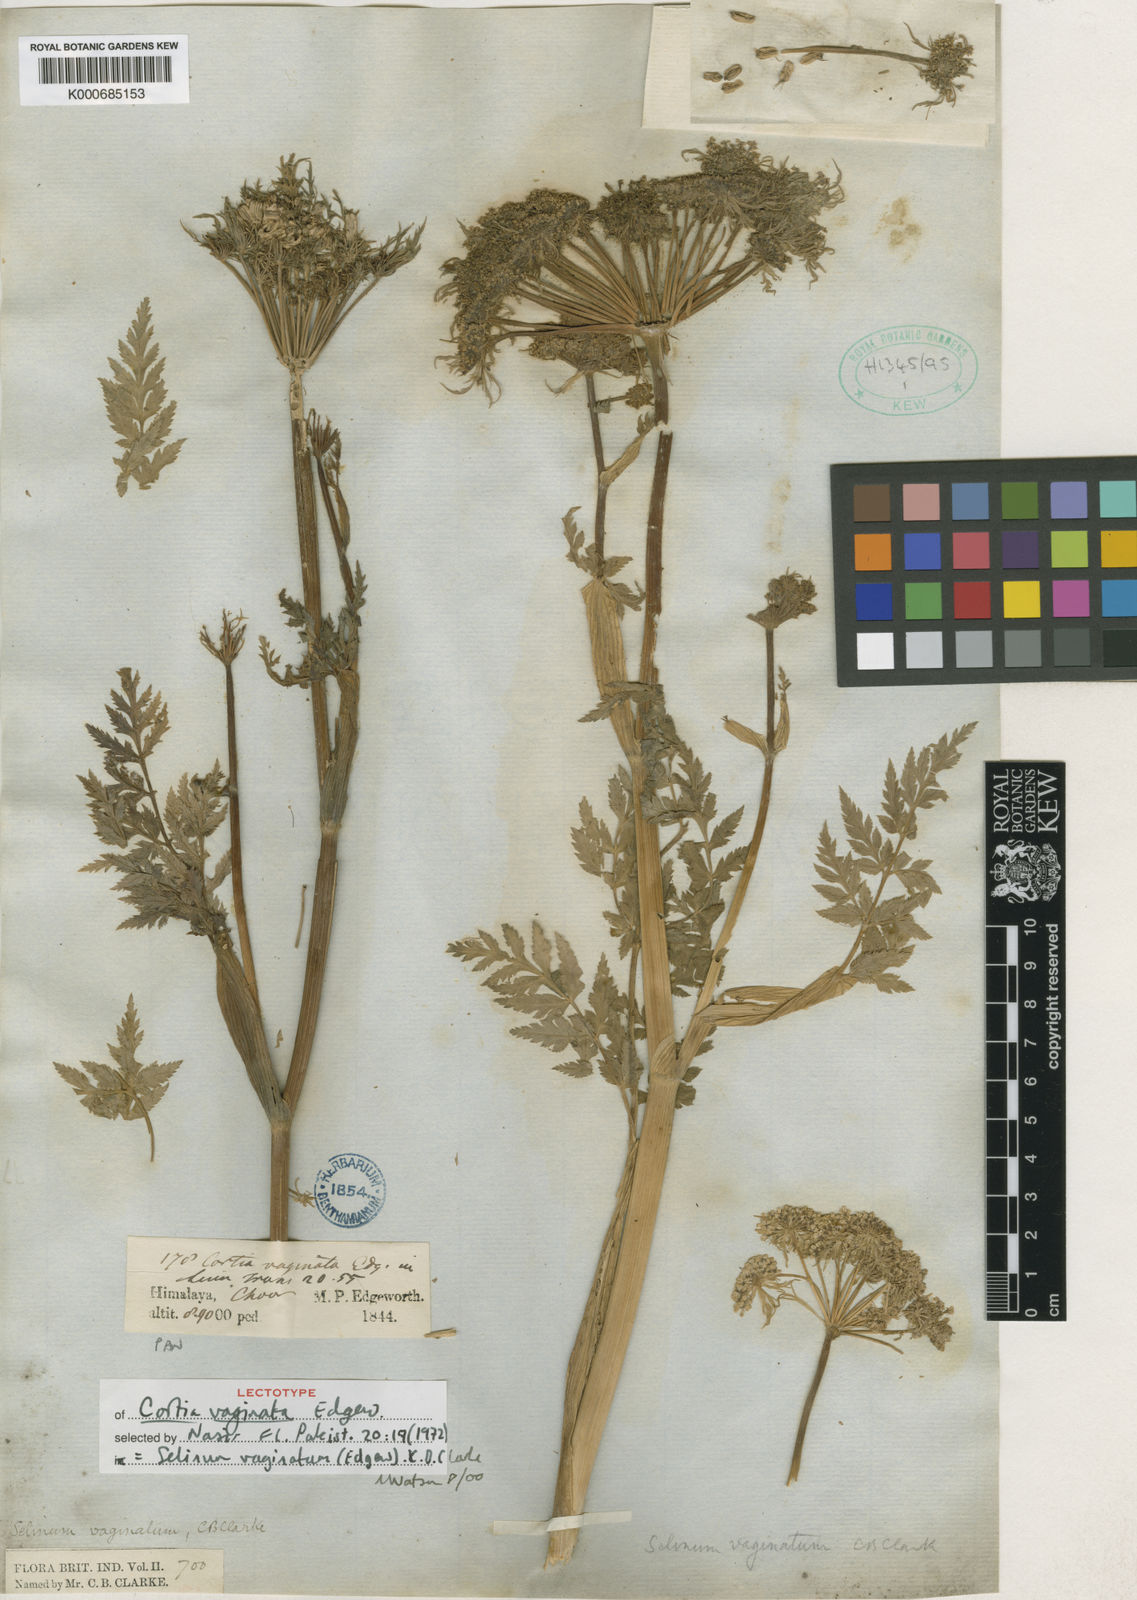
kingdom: Plantae
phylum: Tracheophyta
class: Magnoliopsida
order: Apiales
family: Apiaceae
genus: Selinum
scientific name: Selinum vaginatum
